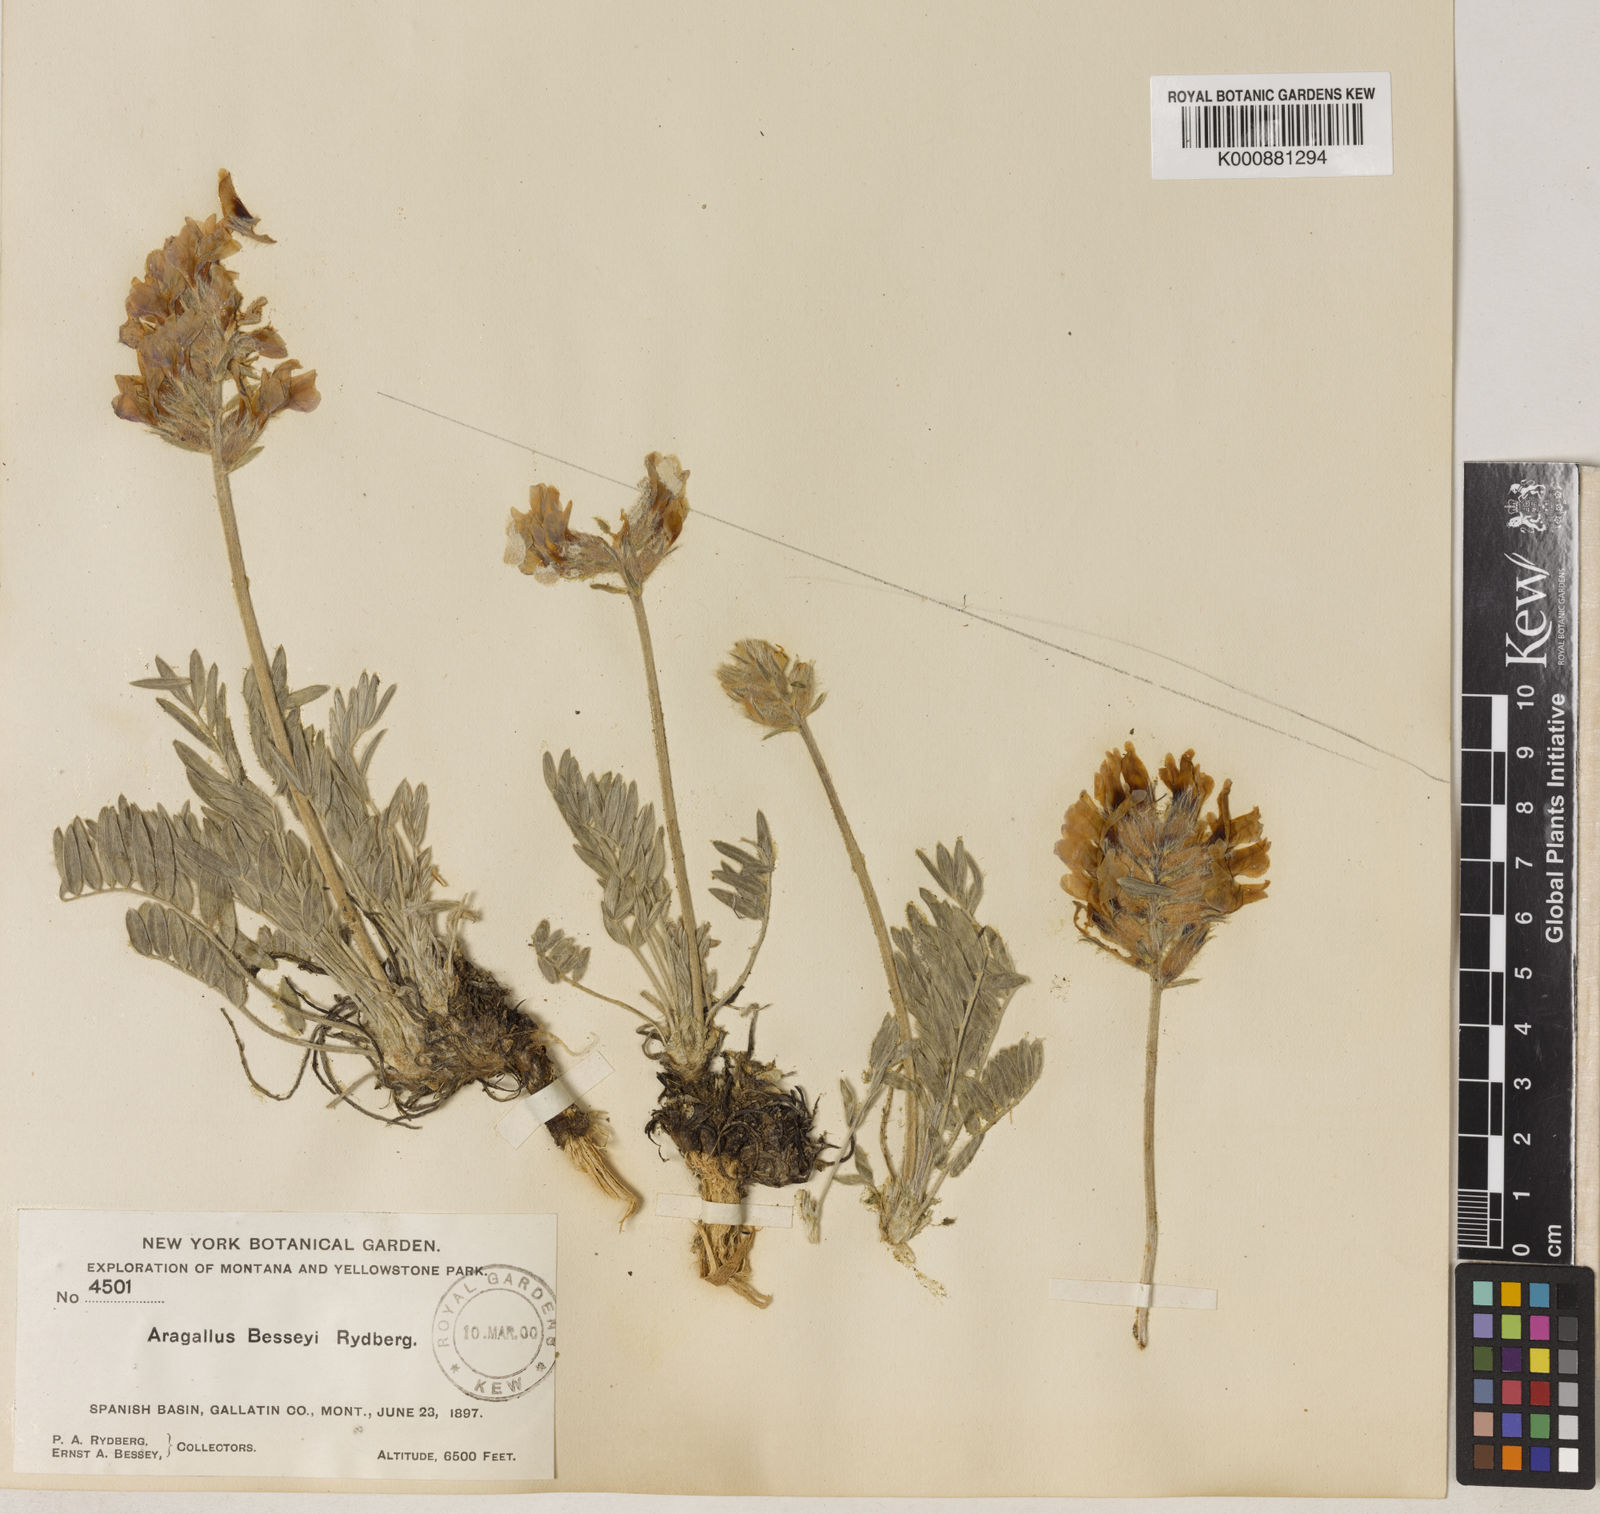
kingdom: Plantae
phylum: Tracheophyta
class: Magnoliopsida
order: Fabales
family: Fabaceae
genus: Oxytropis
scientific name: Oxytropis besseyi
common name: Bessey's locoweed
